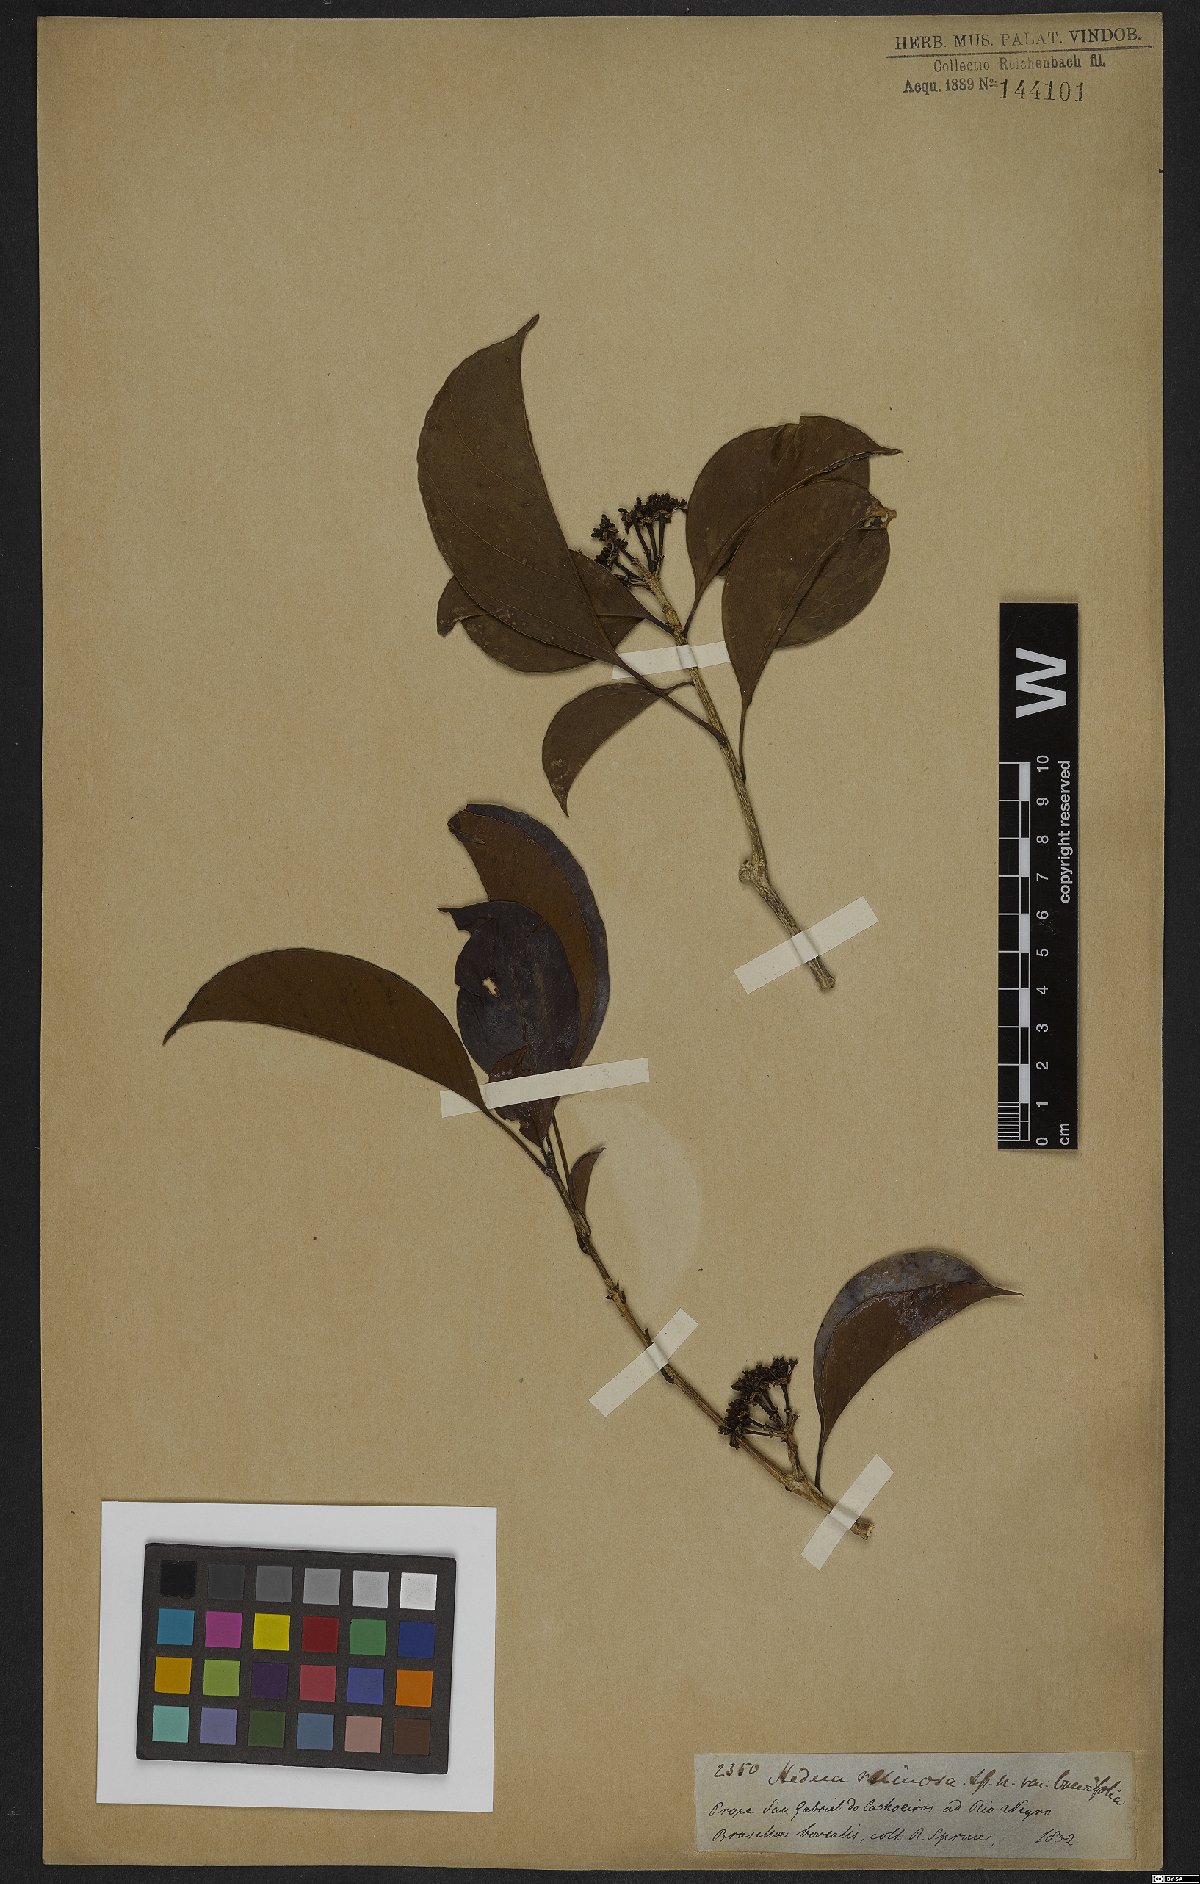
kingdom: Plantae
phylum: Tracheophyta
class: Magnoliopsida
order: Apiales
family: Araliaceae
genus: Dendropanax
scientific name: Dendropanax resinosus
